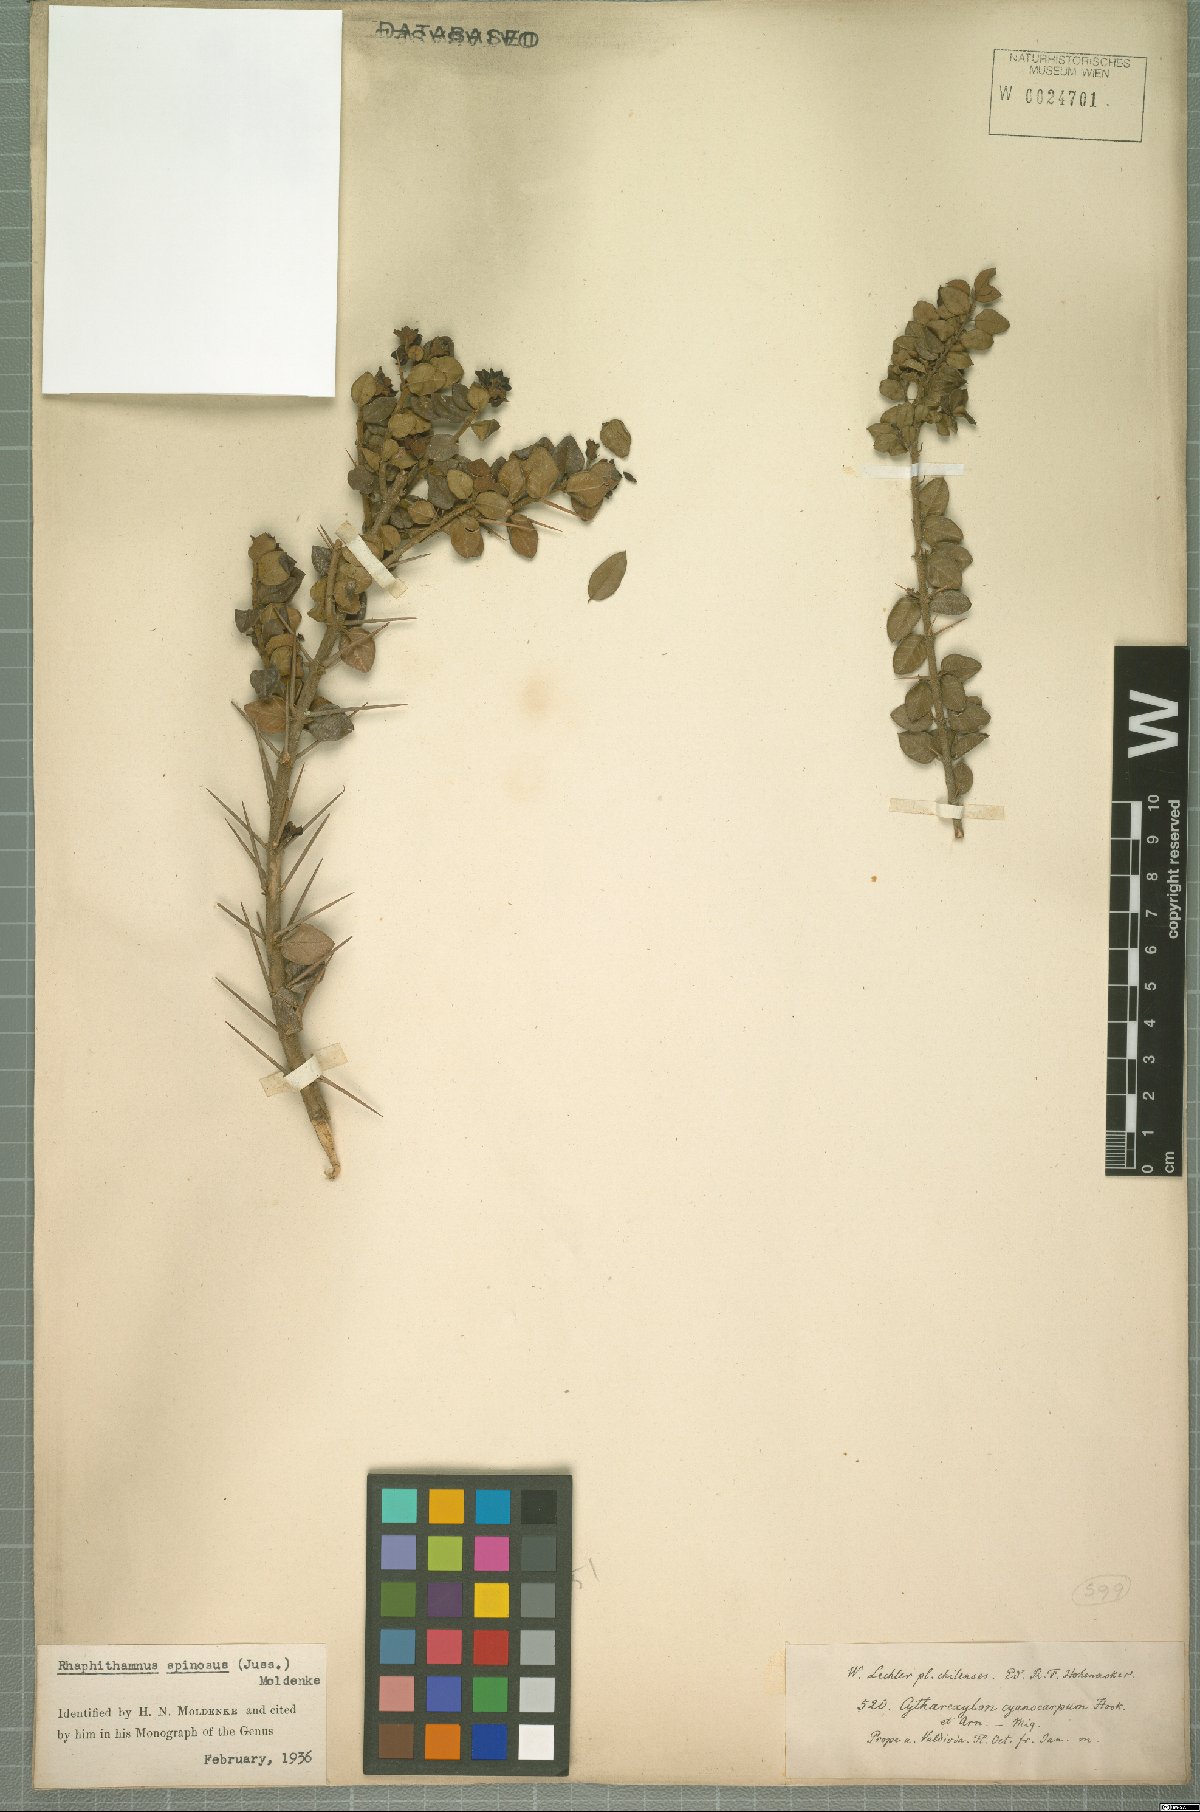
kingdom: Plantae
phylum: Tracheophyta
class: Magnoliopsida
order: Lamiales
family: Verbenaceae
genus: Rhaphithamnus
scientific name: Rhaphithamnus spinosus
